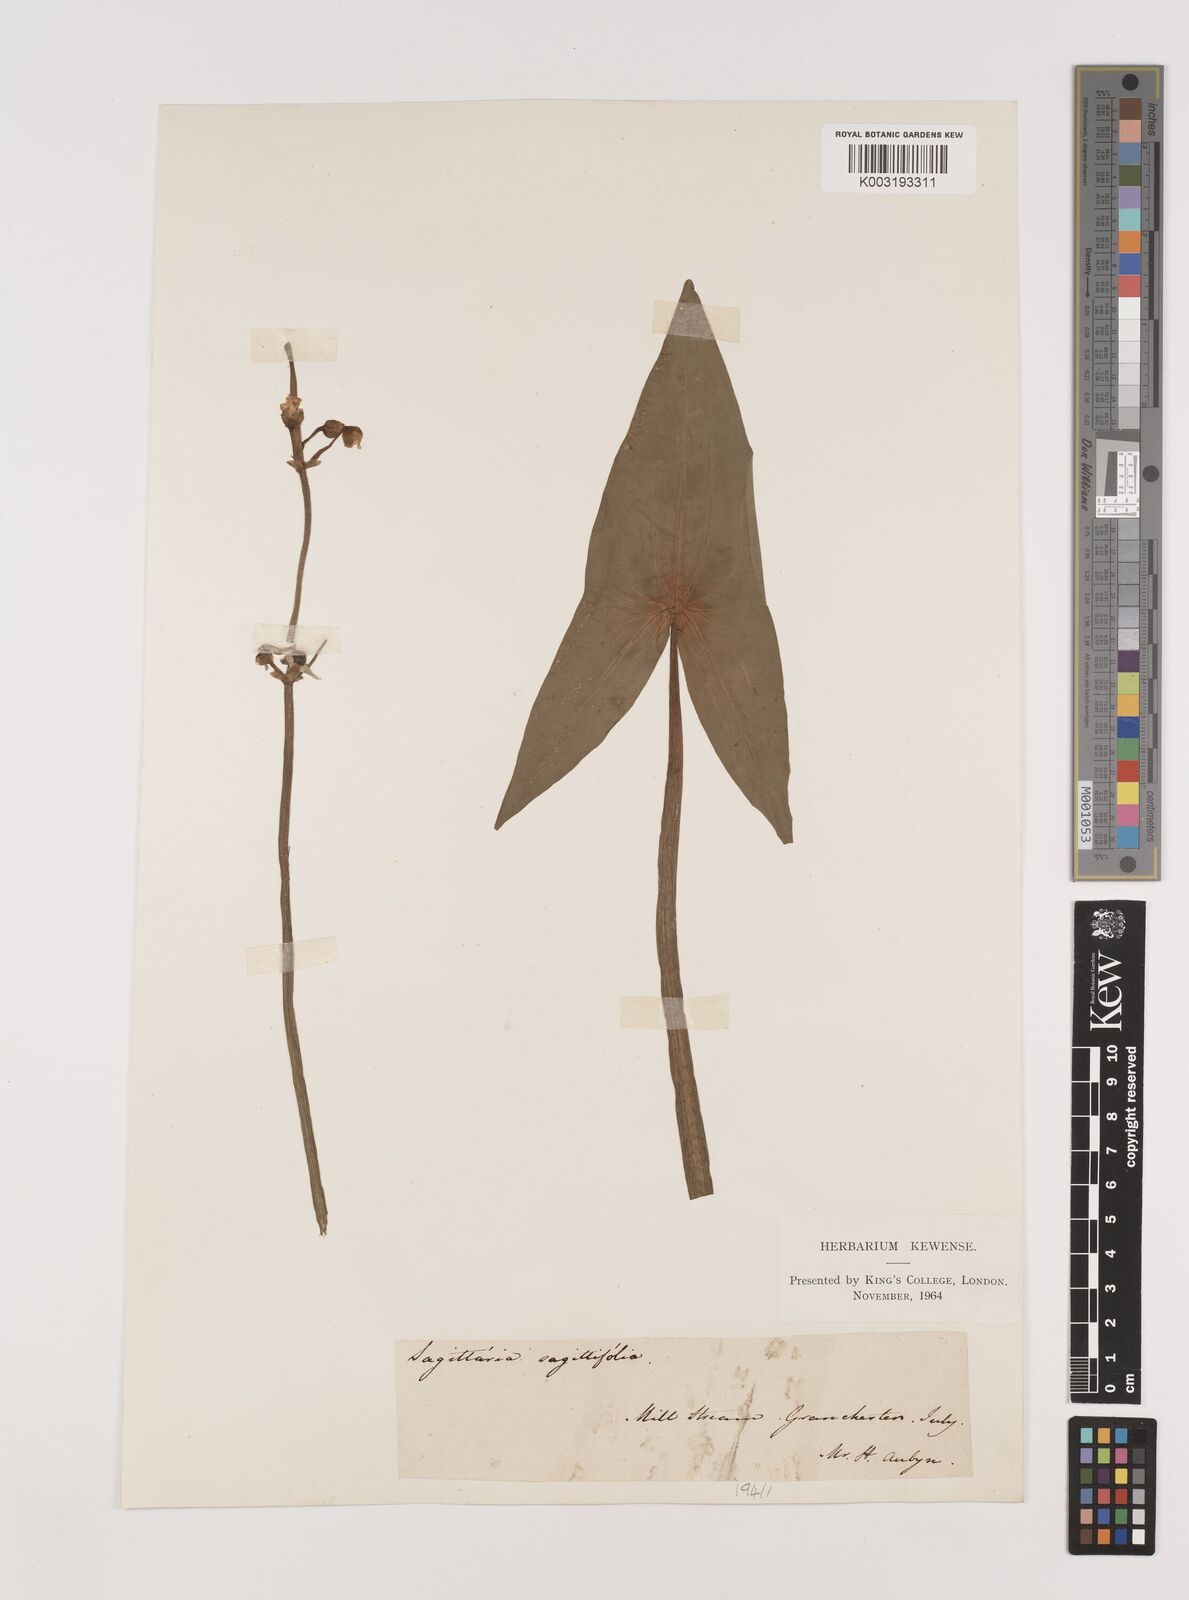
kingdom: Plantae
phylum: Tracheophyta
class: Liliopsida
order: Alismatales
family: Alismataceae
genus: Sagittaria
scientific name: Sagittaria sagittifolia
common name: Arrowhead
